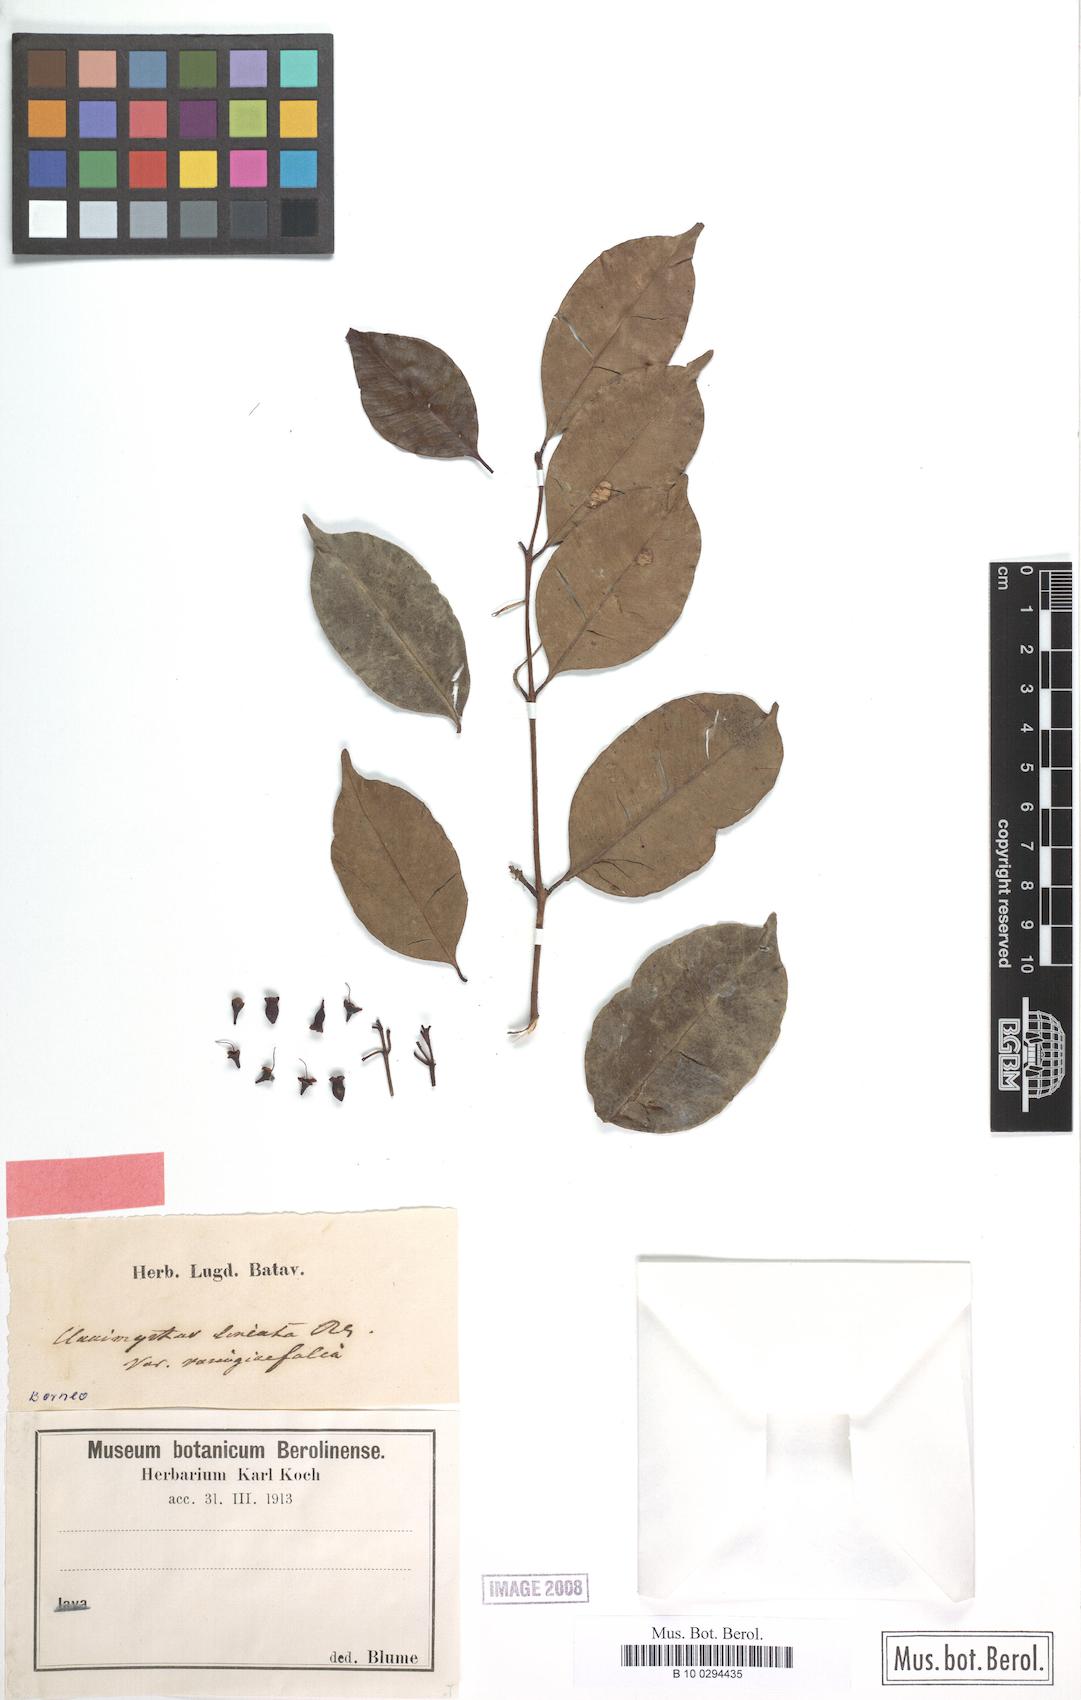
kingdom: Plantae
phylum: Tracheophyta
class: Magnoliopsida
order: Myrtales
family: Myrtaceae
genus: Syzygium
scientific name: Syzygium lineatum
